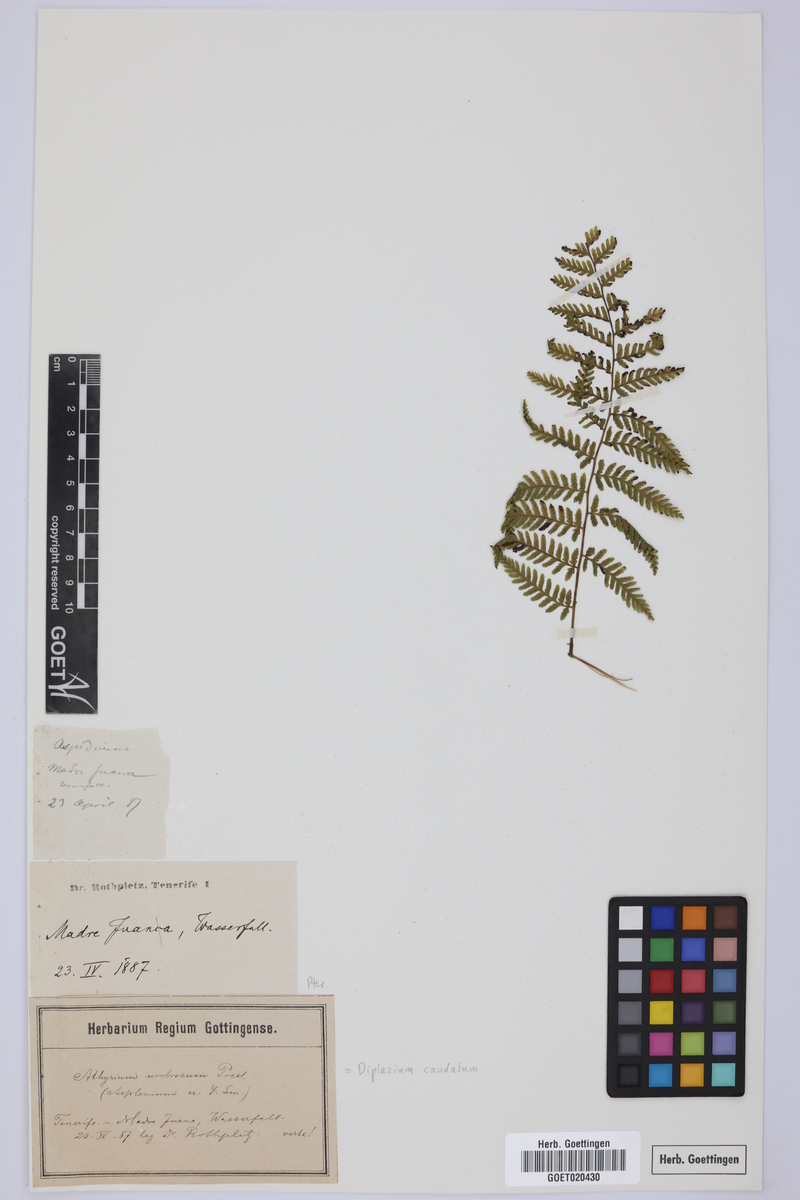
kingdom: Plantae
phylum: Tracheophyta
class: Polypodiopsida
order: Polypodiales
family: Athyriaceae
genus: Diplazium
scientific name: Diplazium caudatum
